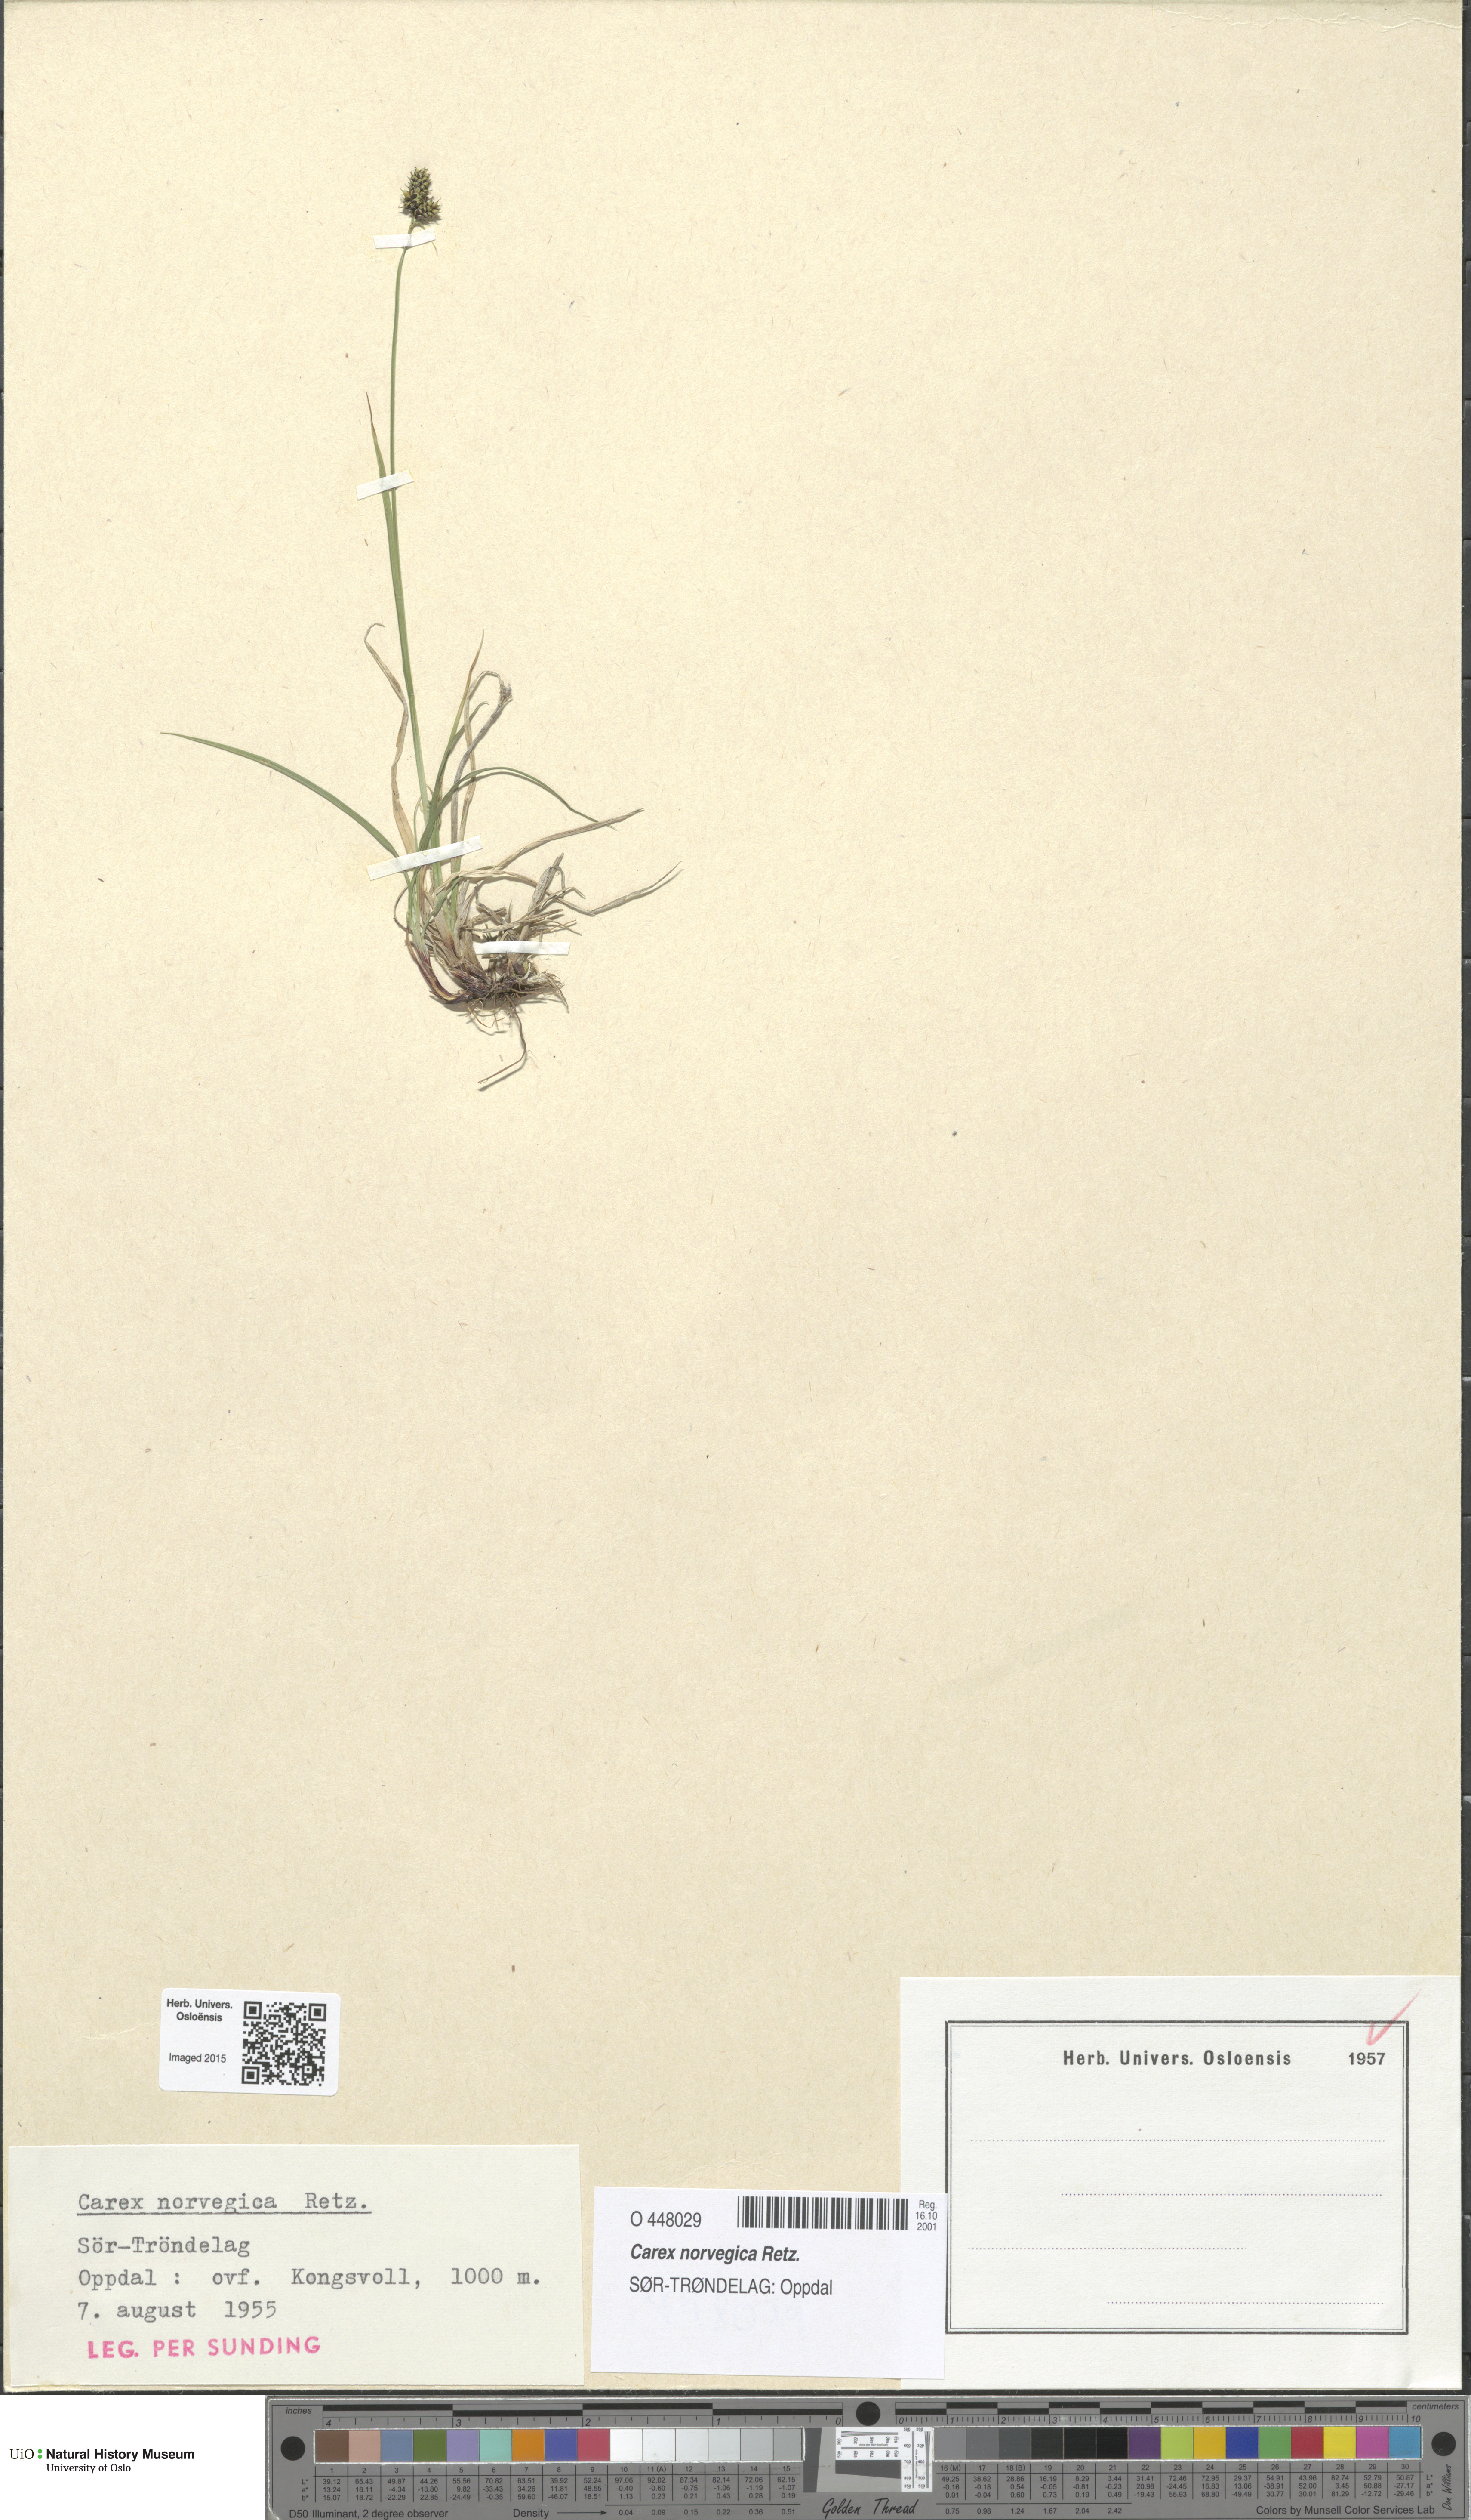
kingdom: Plantae
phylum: Tracheophyta
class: Liliopsida
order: Poales
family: Cyperaceae
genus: Carex
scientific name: Carex norvegica
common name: Close-headed alpine-sedge
